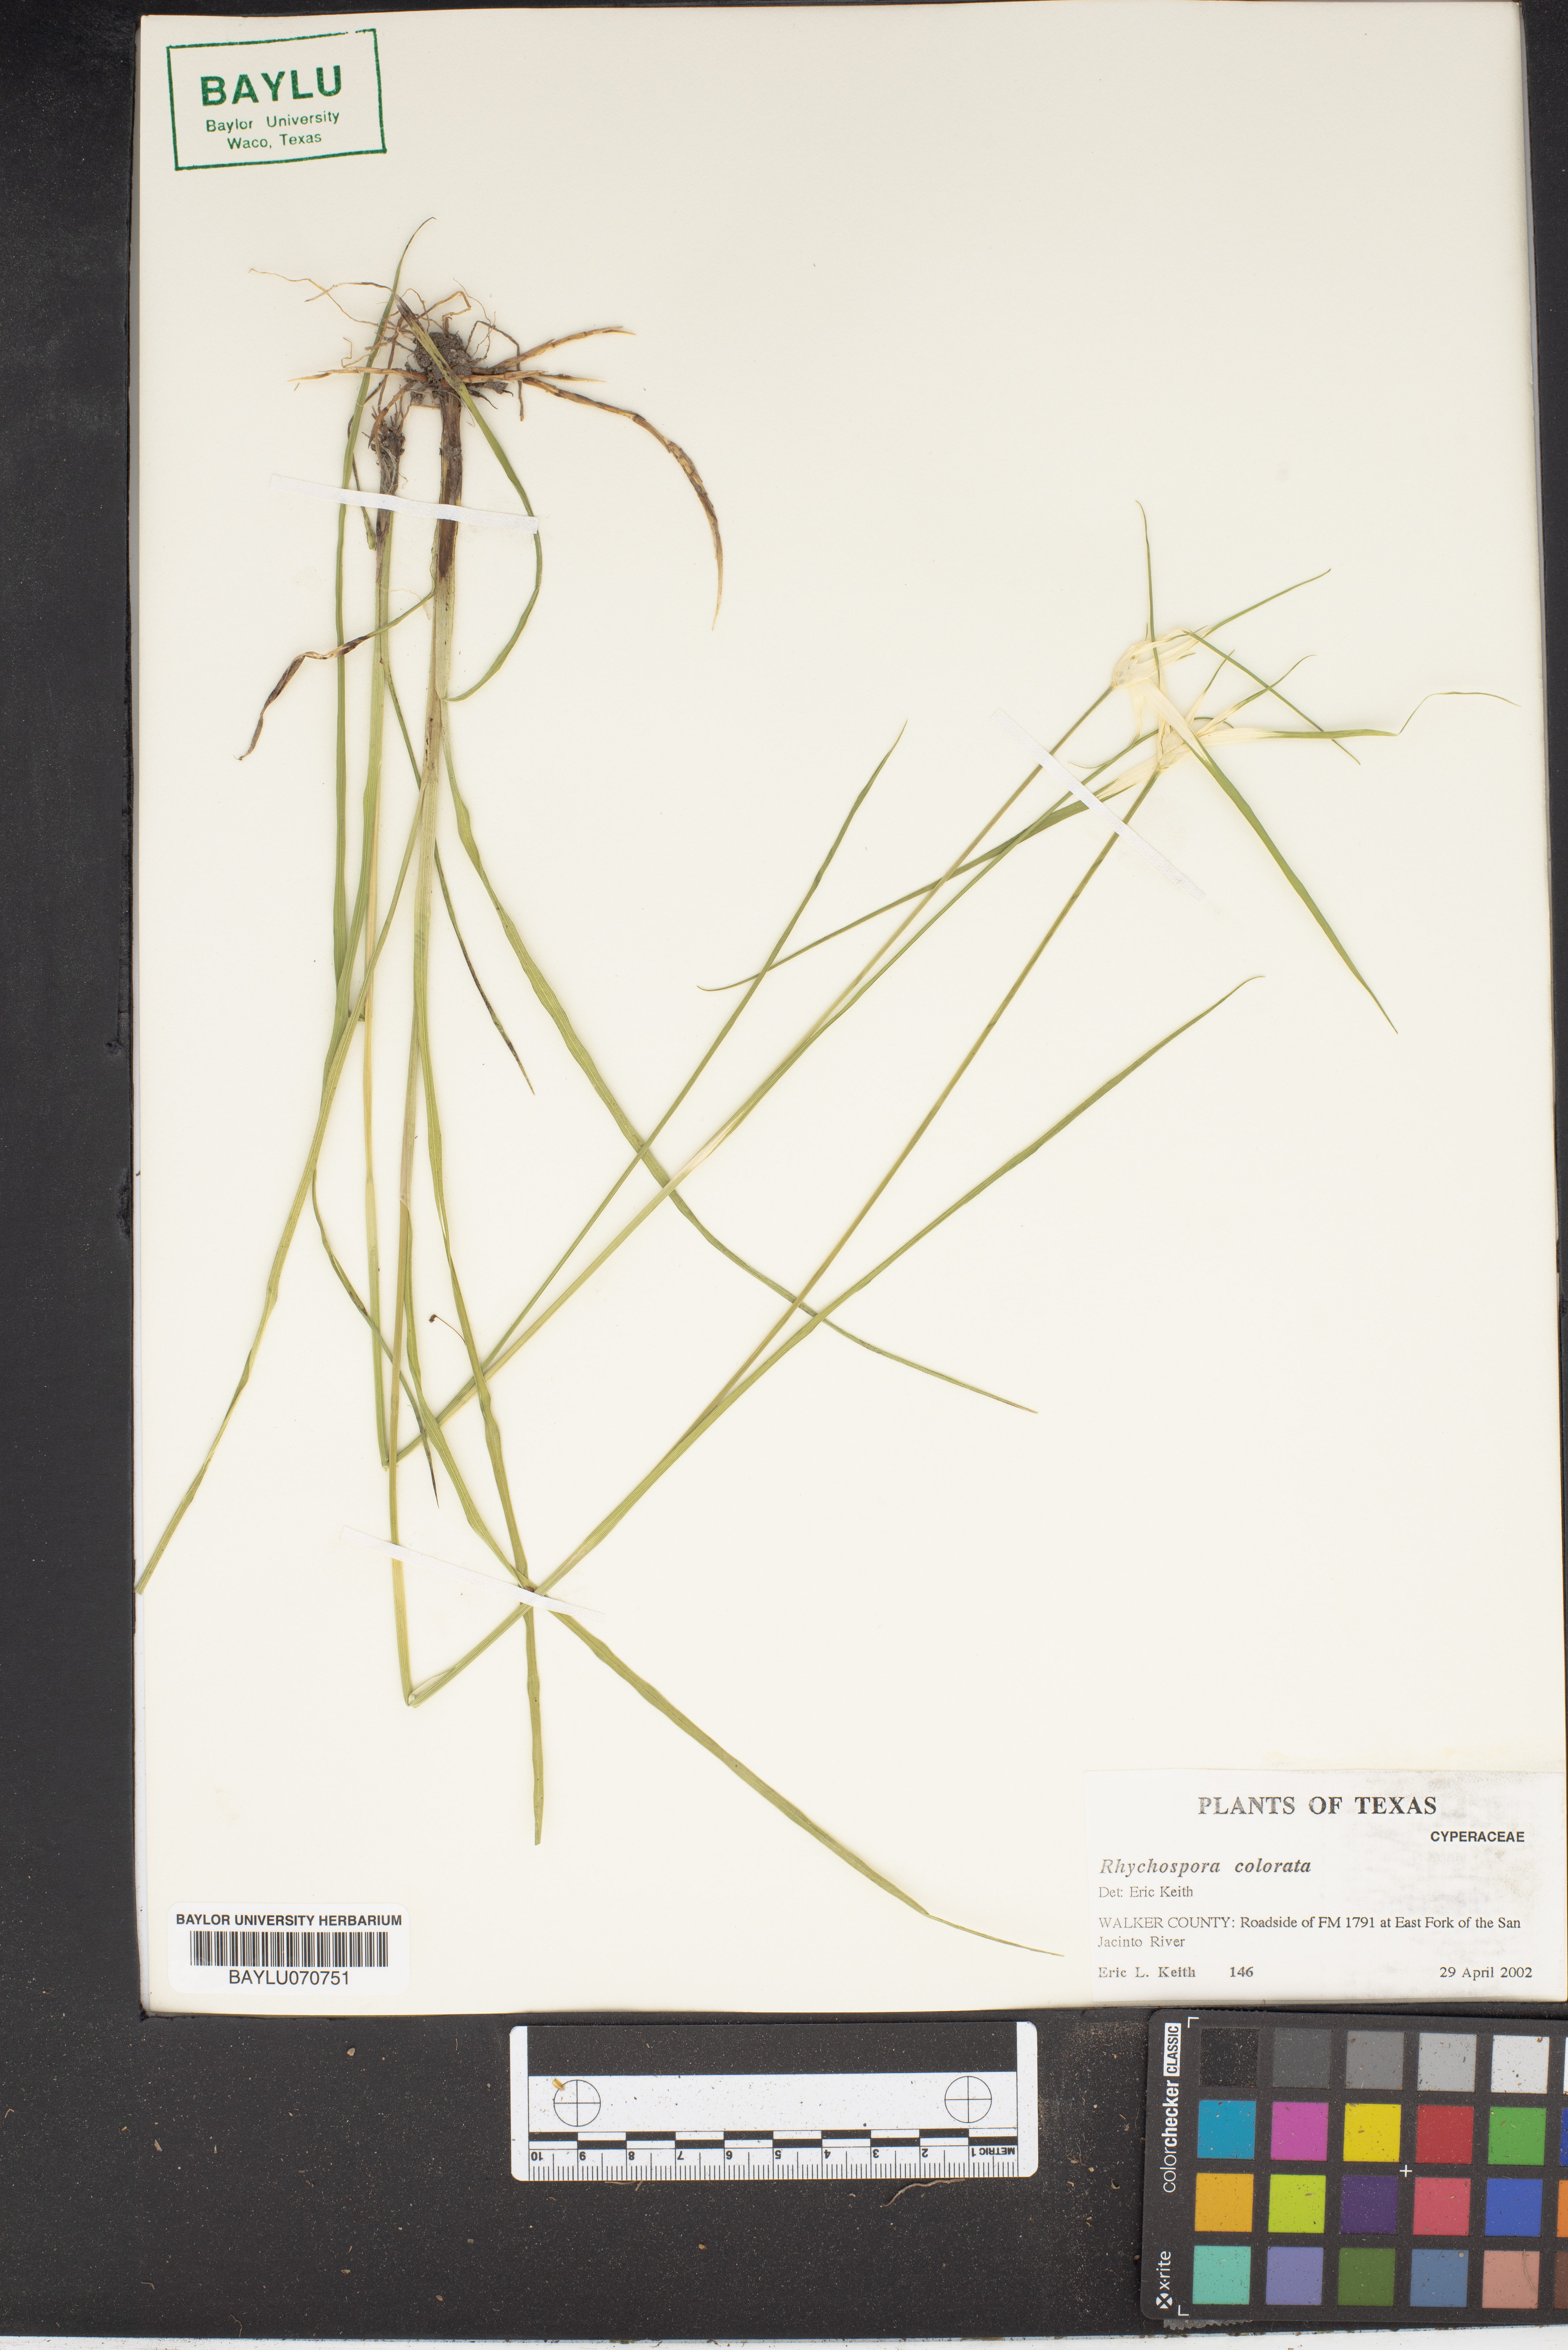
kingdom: Plantae
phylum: Tracheophyta
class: Liliopsida
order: Poales
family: Cyperaceae
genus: Rhynchospora
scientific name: Rhynchospora colorata
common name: Star sedge
